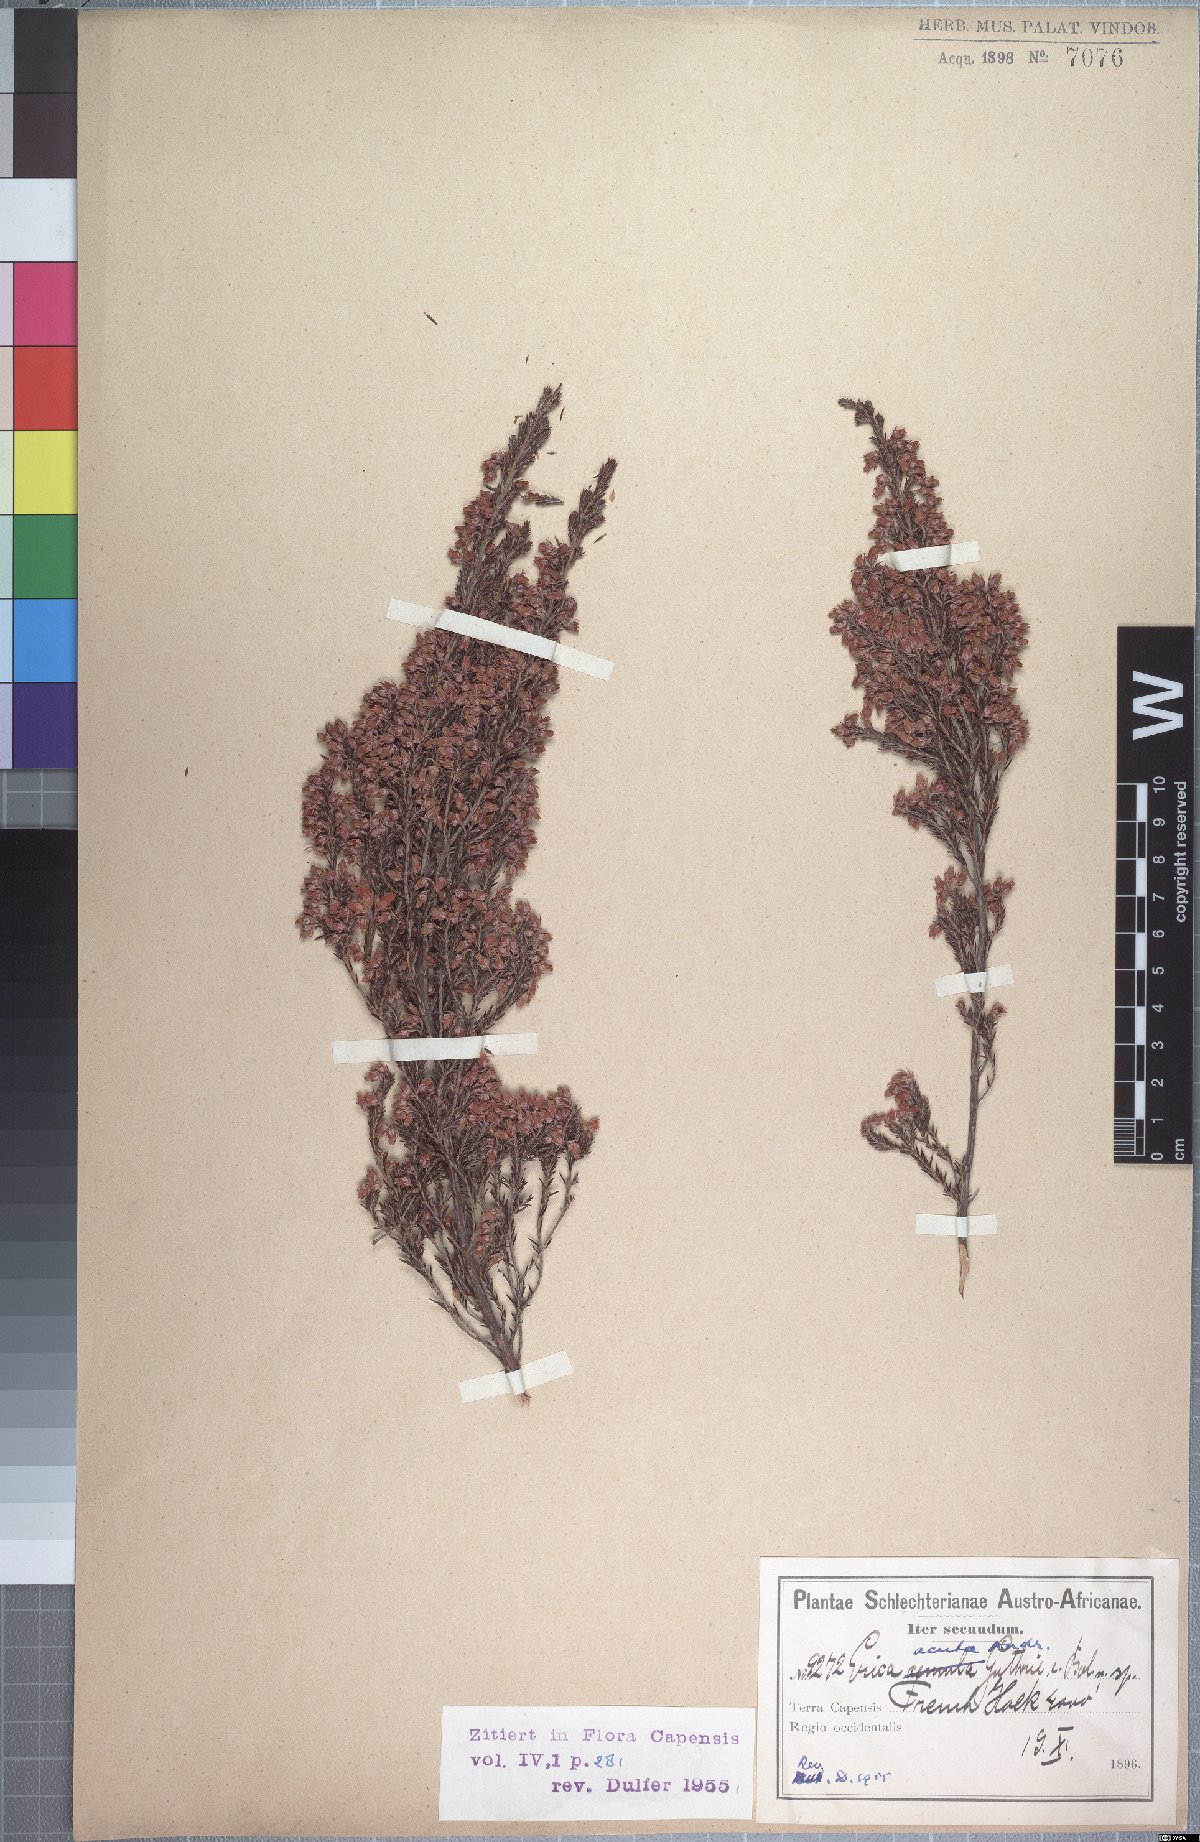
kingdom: Plantae
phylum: Tracheophyta
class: Magnoliopsida
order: Ericales
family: Ericaceae
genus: Erica
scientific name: Erica acuta
